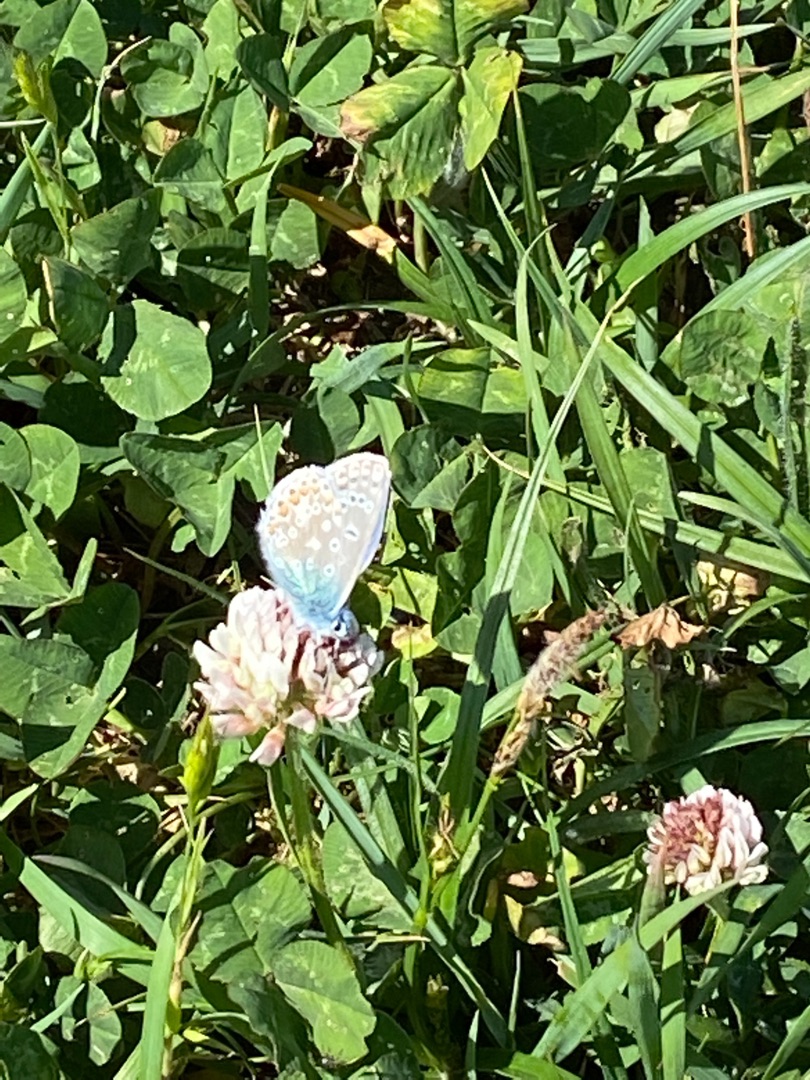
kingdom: Animalia
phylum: Arthropoda
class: Insecta
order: Lepidoptera
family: Lycaenidae
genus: Polyommatus
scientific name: Polyommatus icarus
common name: Almindelig blåfugl
